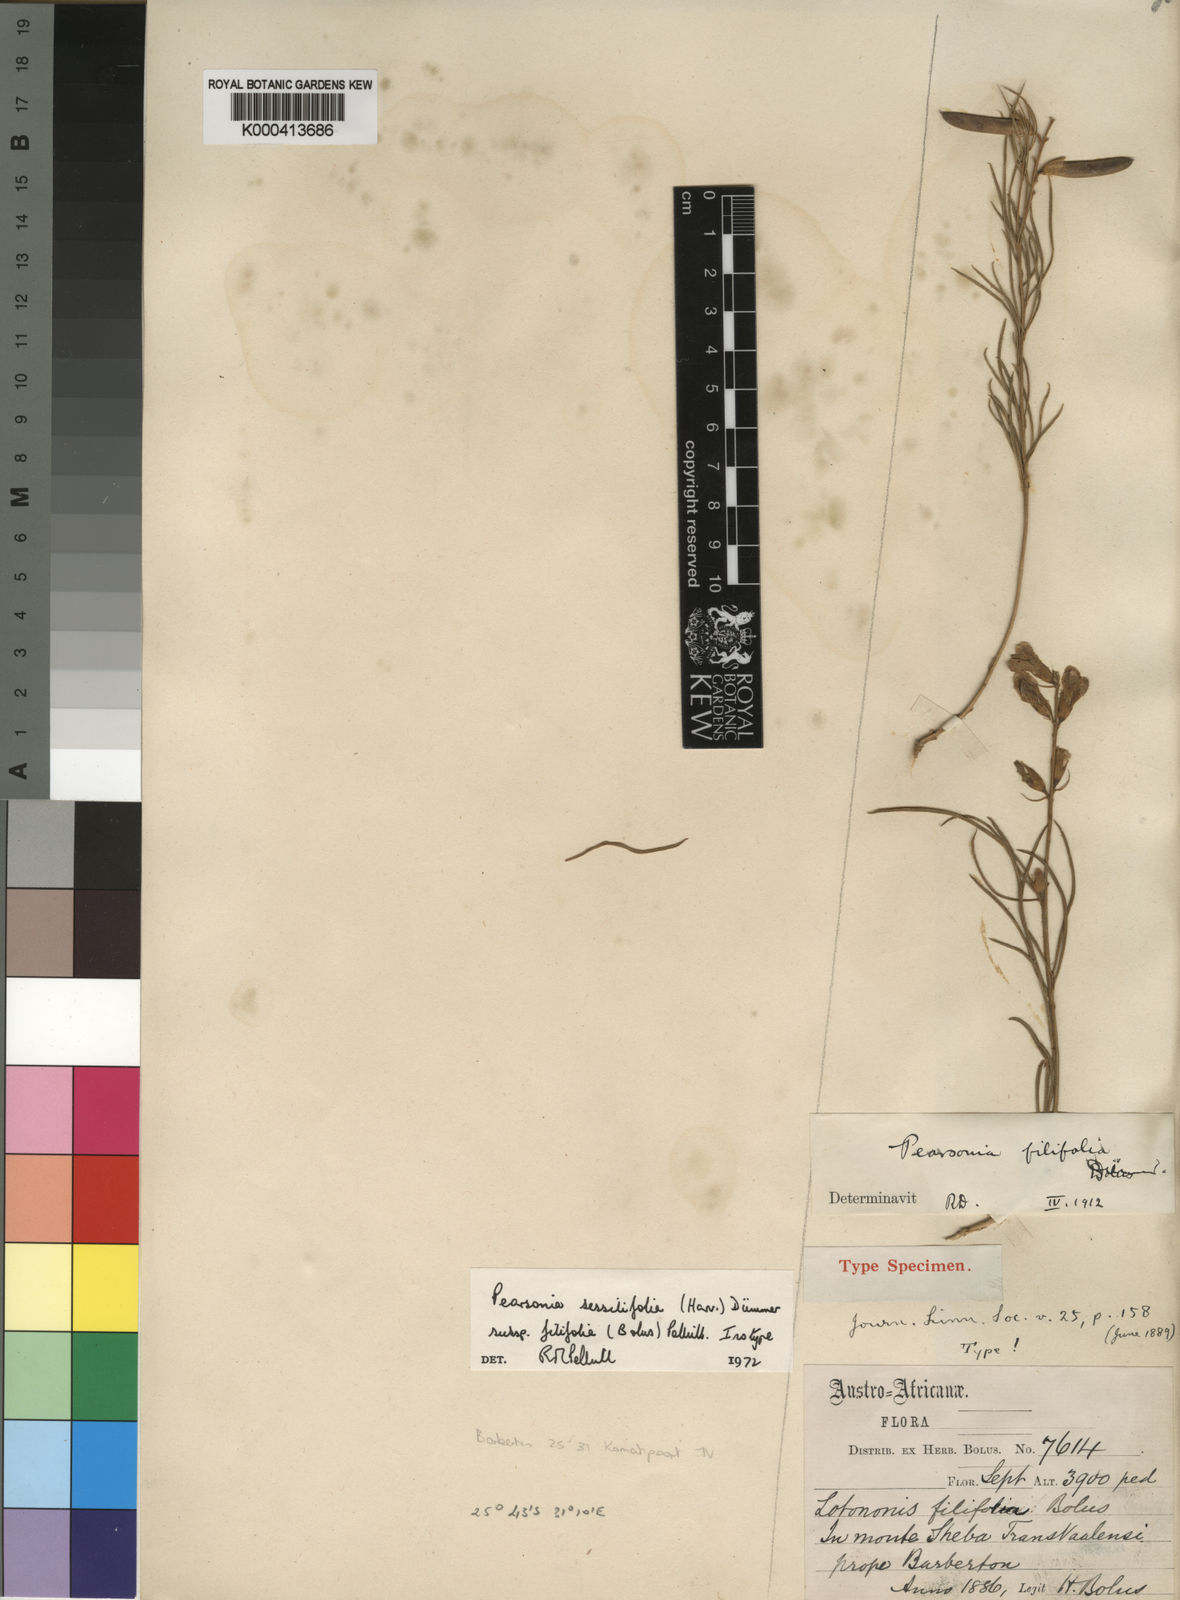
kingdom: Plantae
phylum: Tracheophyta
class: Magnoliopsida
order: Fabales
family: Fabaceae
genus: Pearsonia
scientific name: Pearsonia sessilifolia
